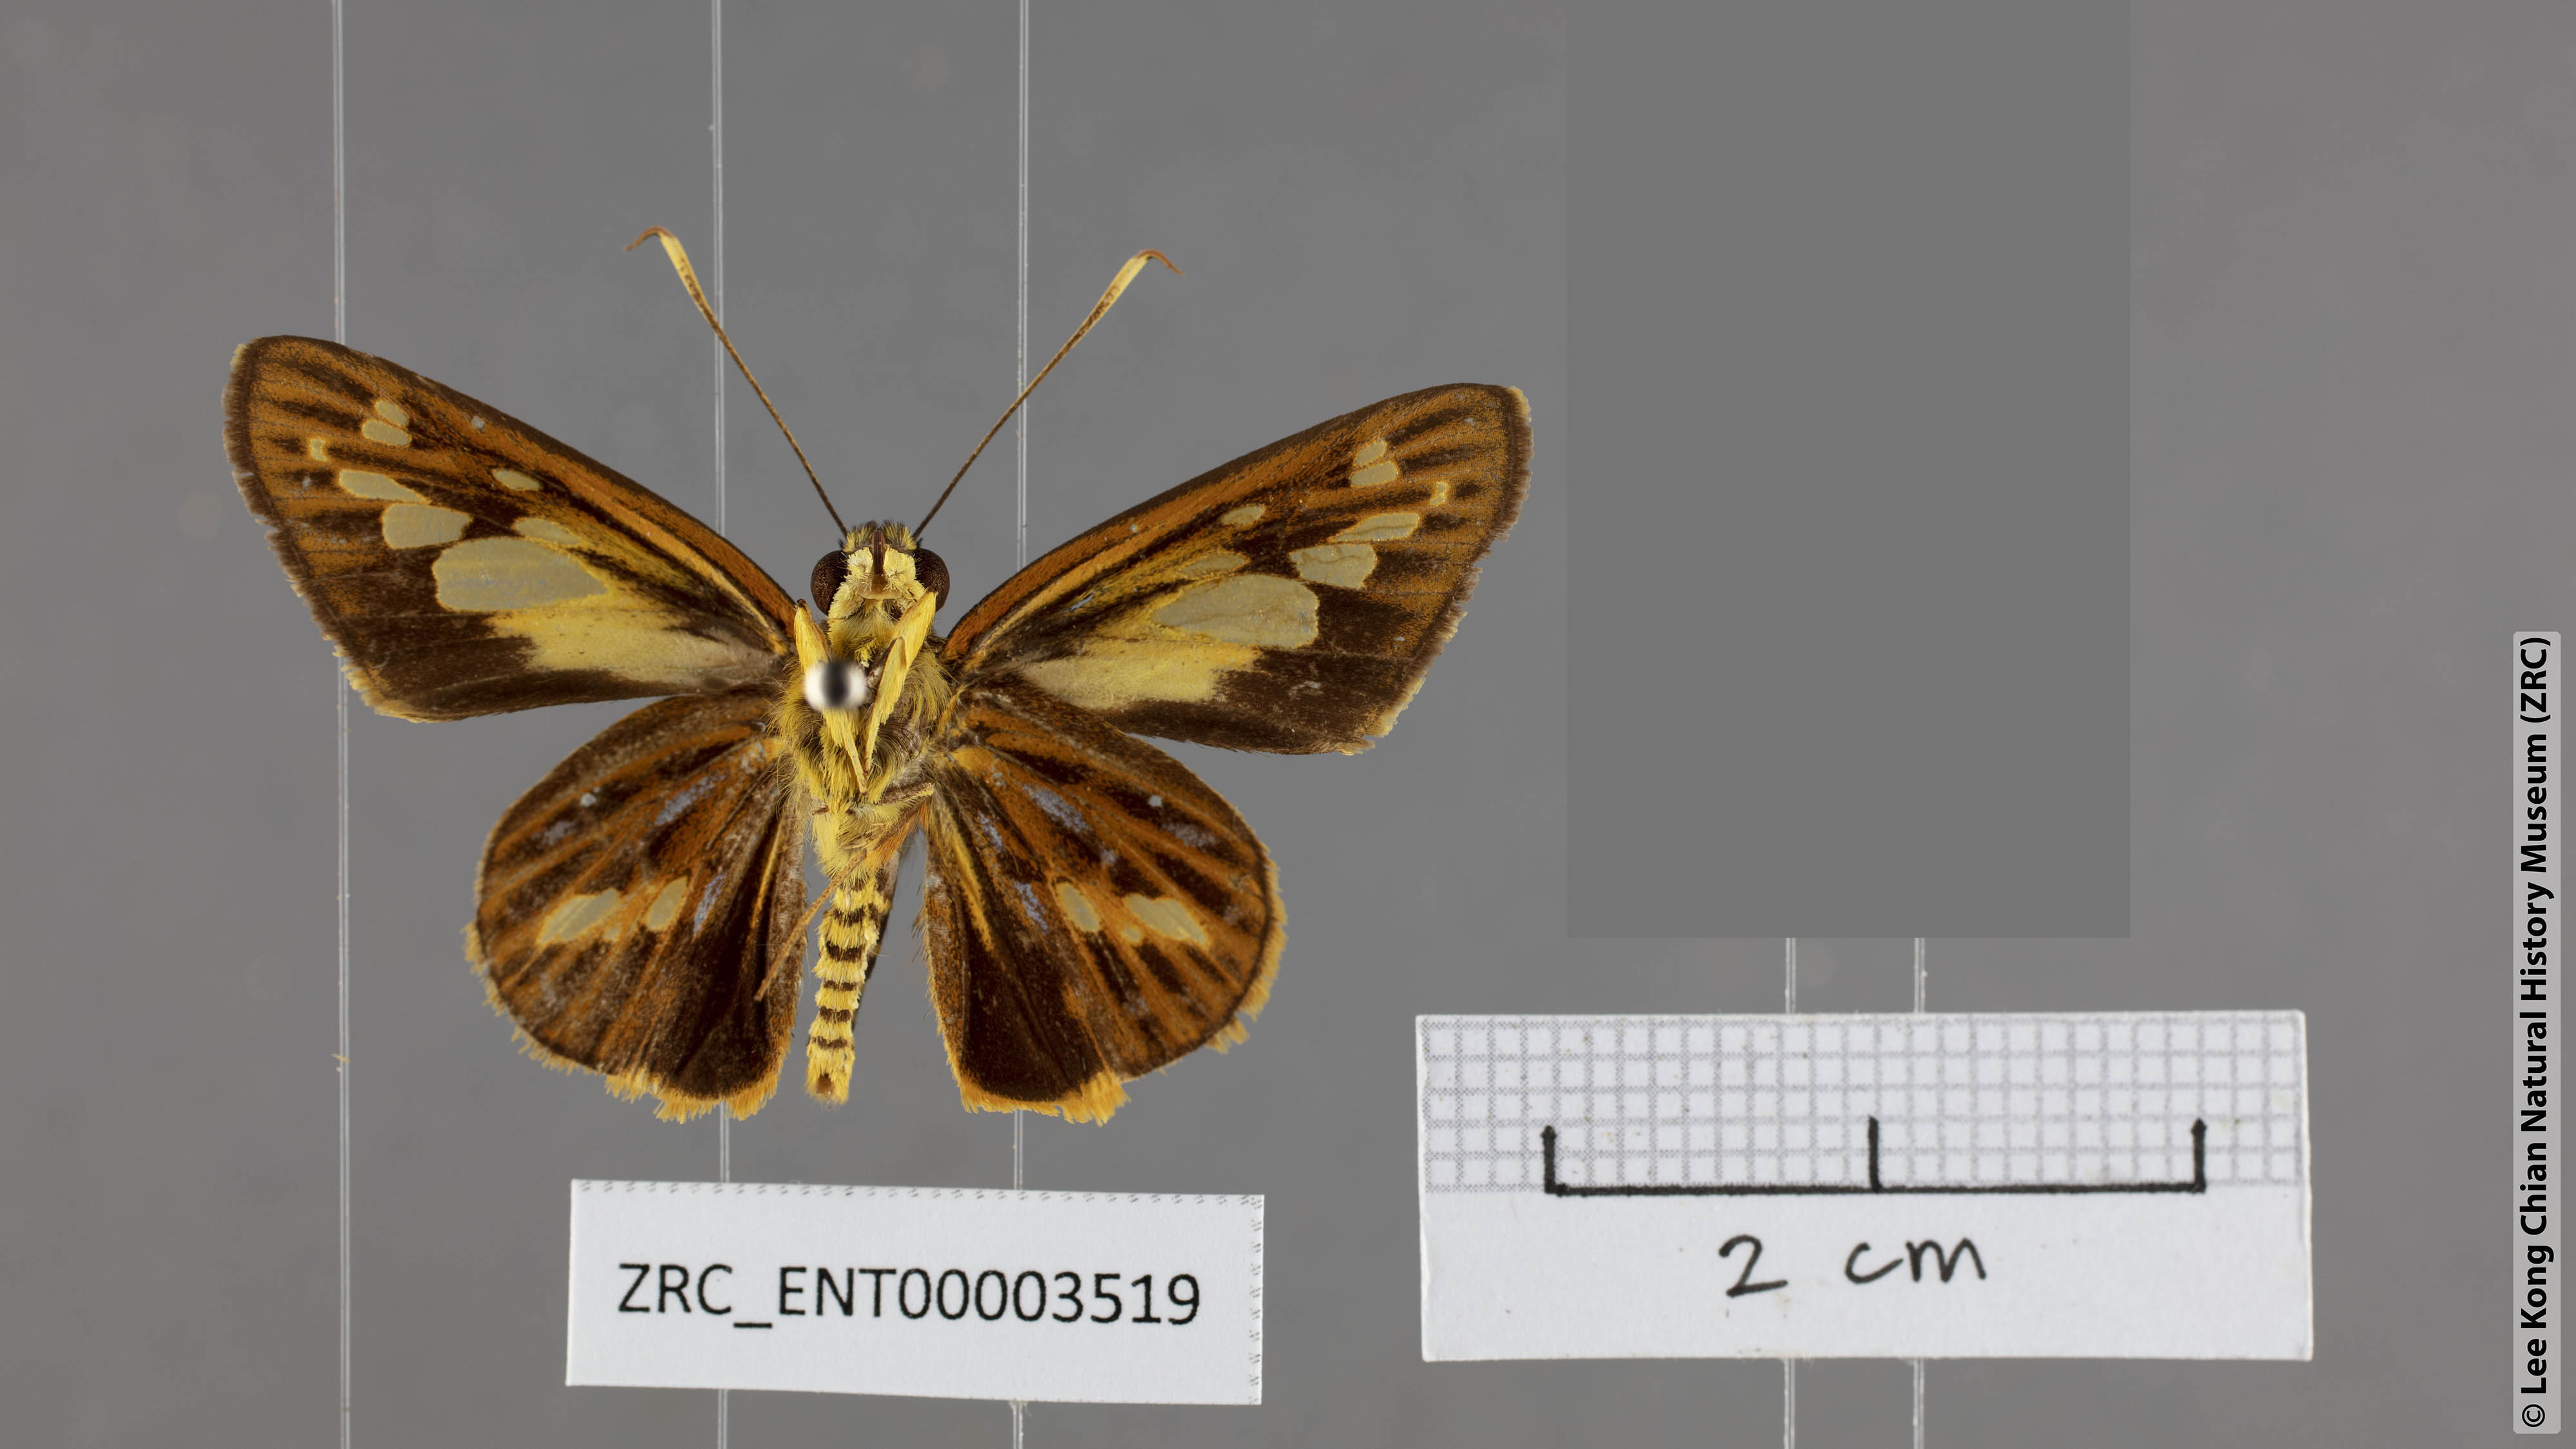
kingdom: Animalia
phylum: Arthropoda
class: Insecta
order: Lepidoptera
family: Hesperiidae
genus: Pyroneura
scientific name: Pyroneura niasana
